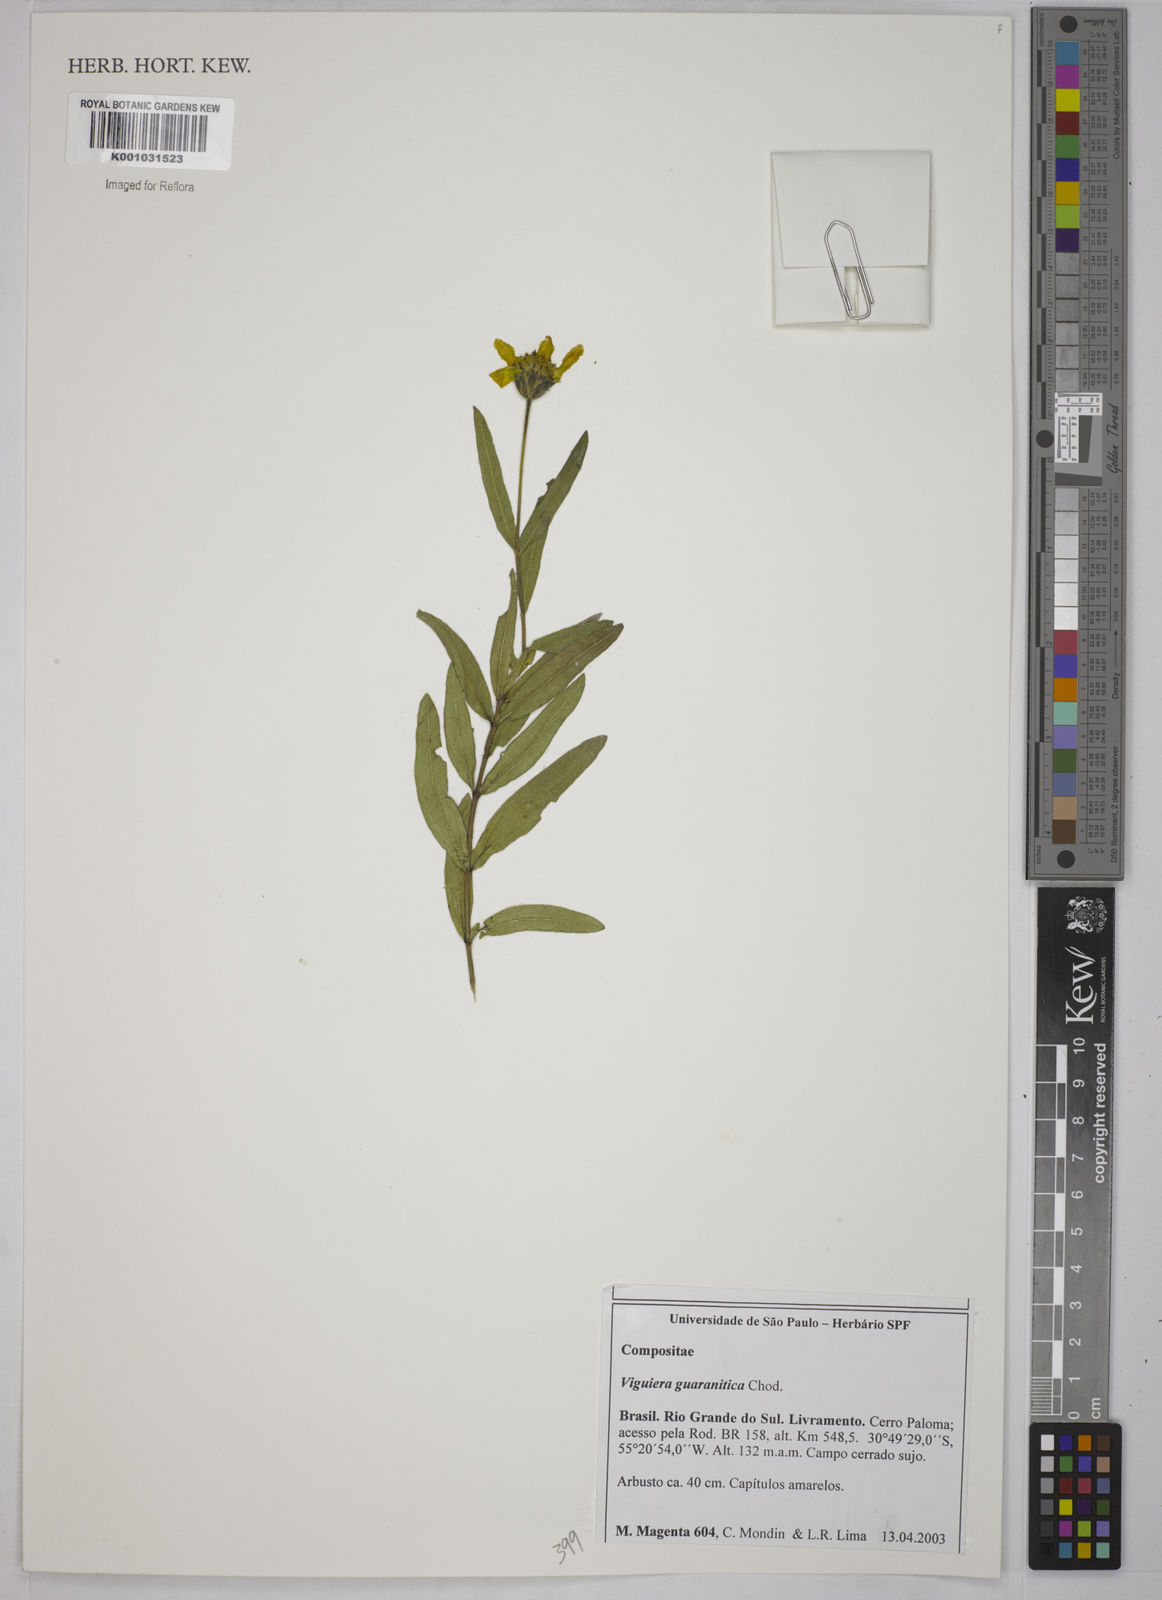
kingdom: Plantae
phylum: Tracheophyta
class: Magnoliopsida
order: Asterales
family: Asteraceae
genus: Aldama
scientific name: Aldama tuberosa
